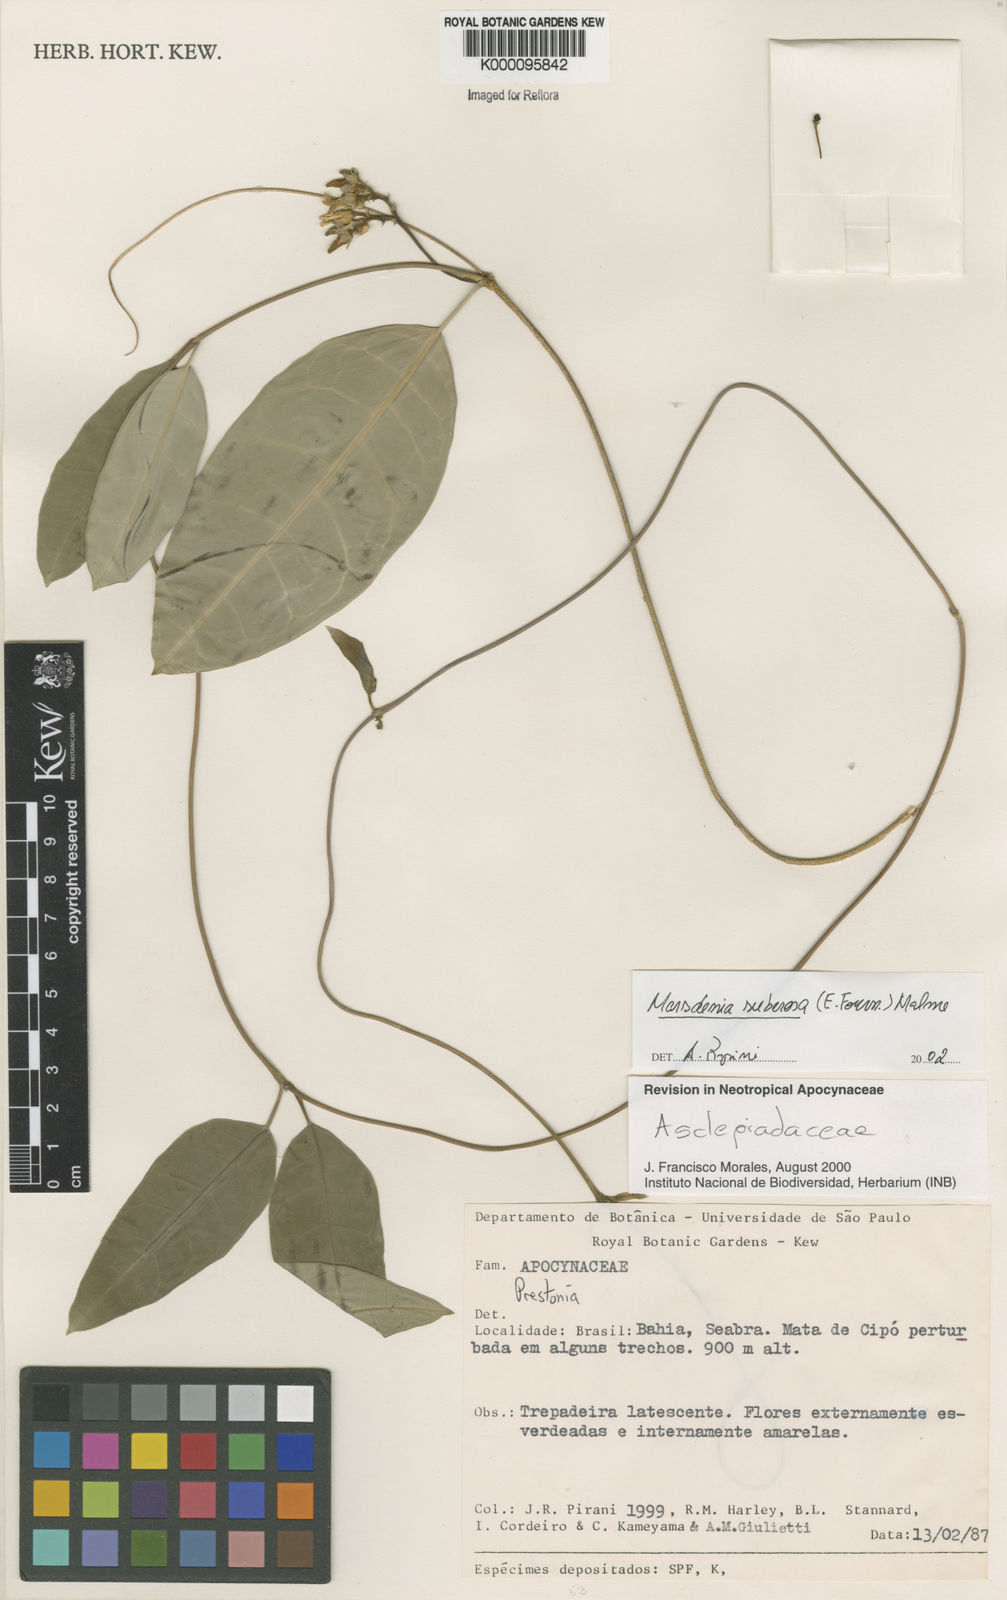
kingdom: Plantae
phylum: Tracheophyta
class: Magnoliopsida
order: Gentianales
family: Apocynaceae
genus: Ruehssia
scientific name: Ruehssia suberosa
